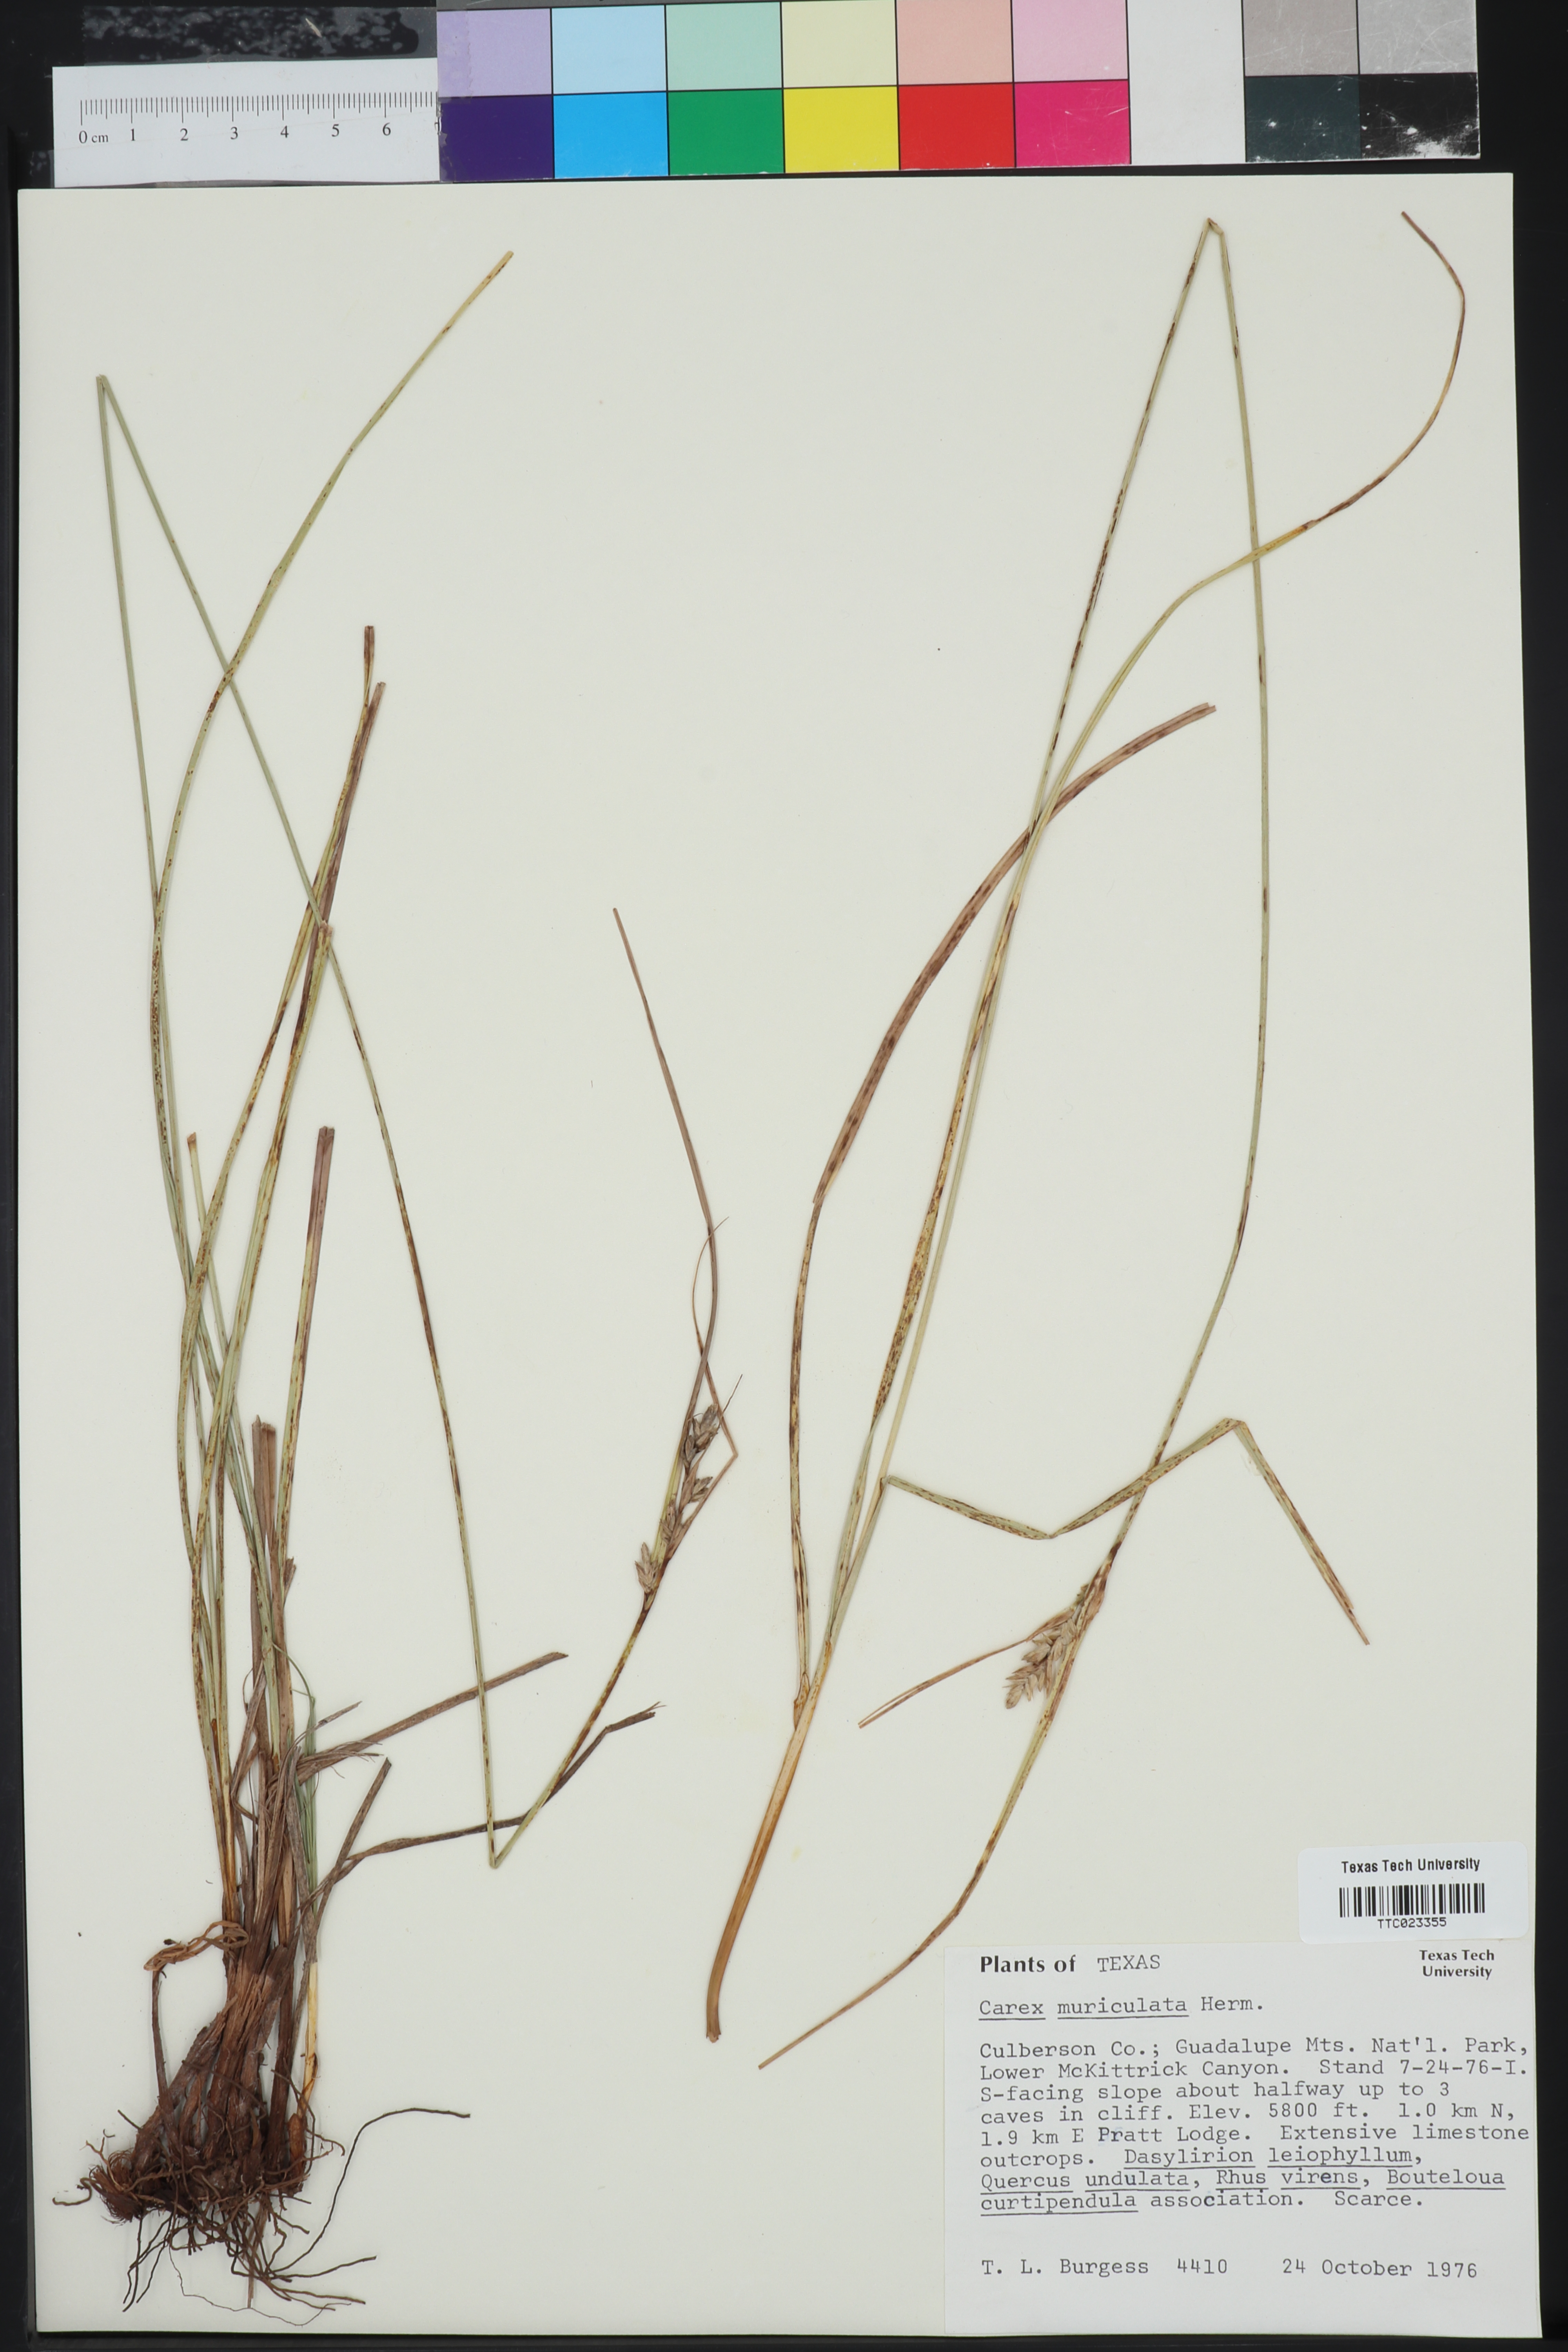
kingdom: Plantae
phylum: Tracheophyta
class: Liliopsida
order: Poales
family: Cyperaceae
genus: Carex
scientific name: Carex muriculata
